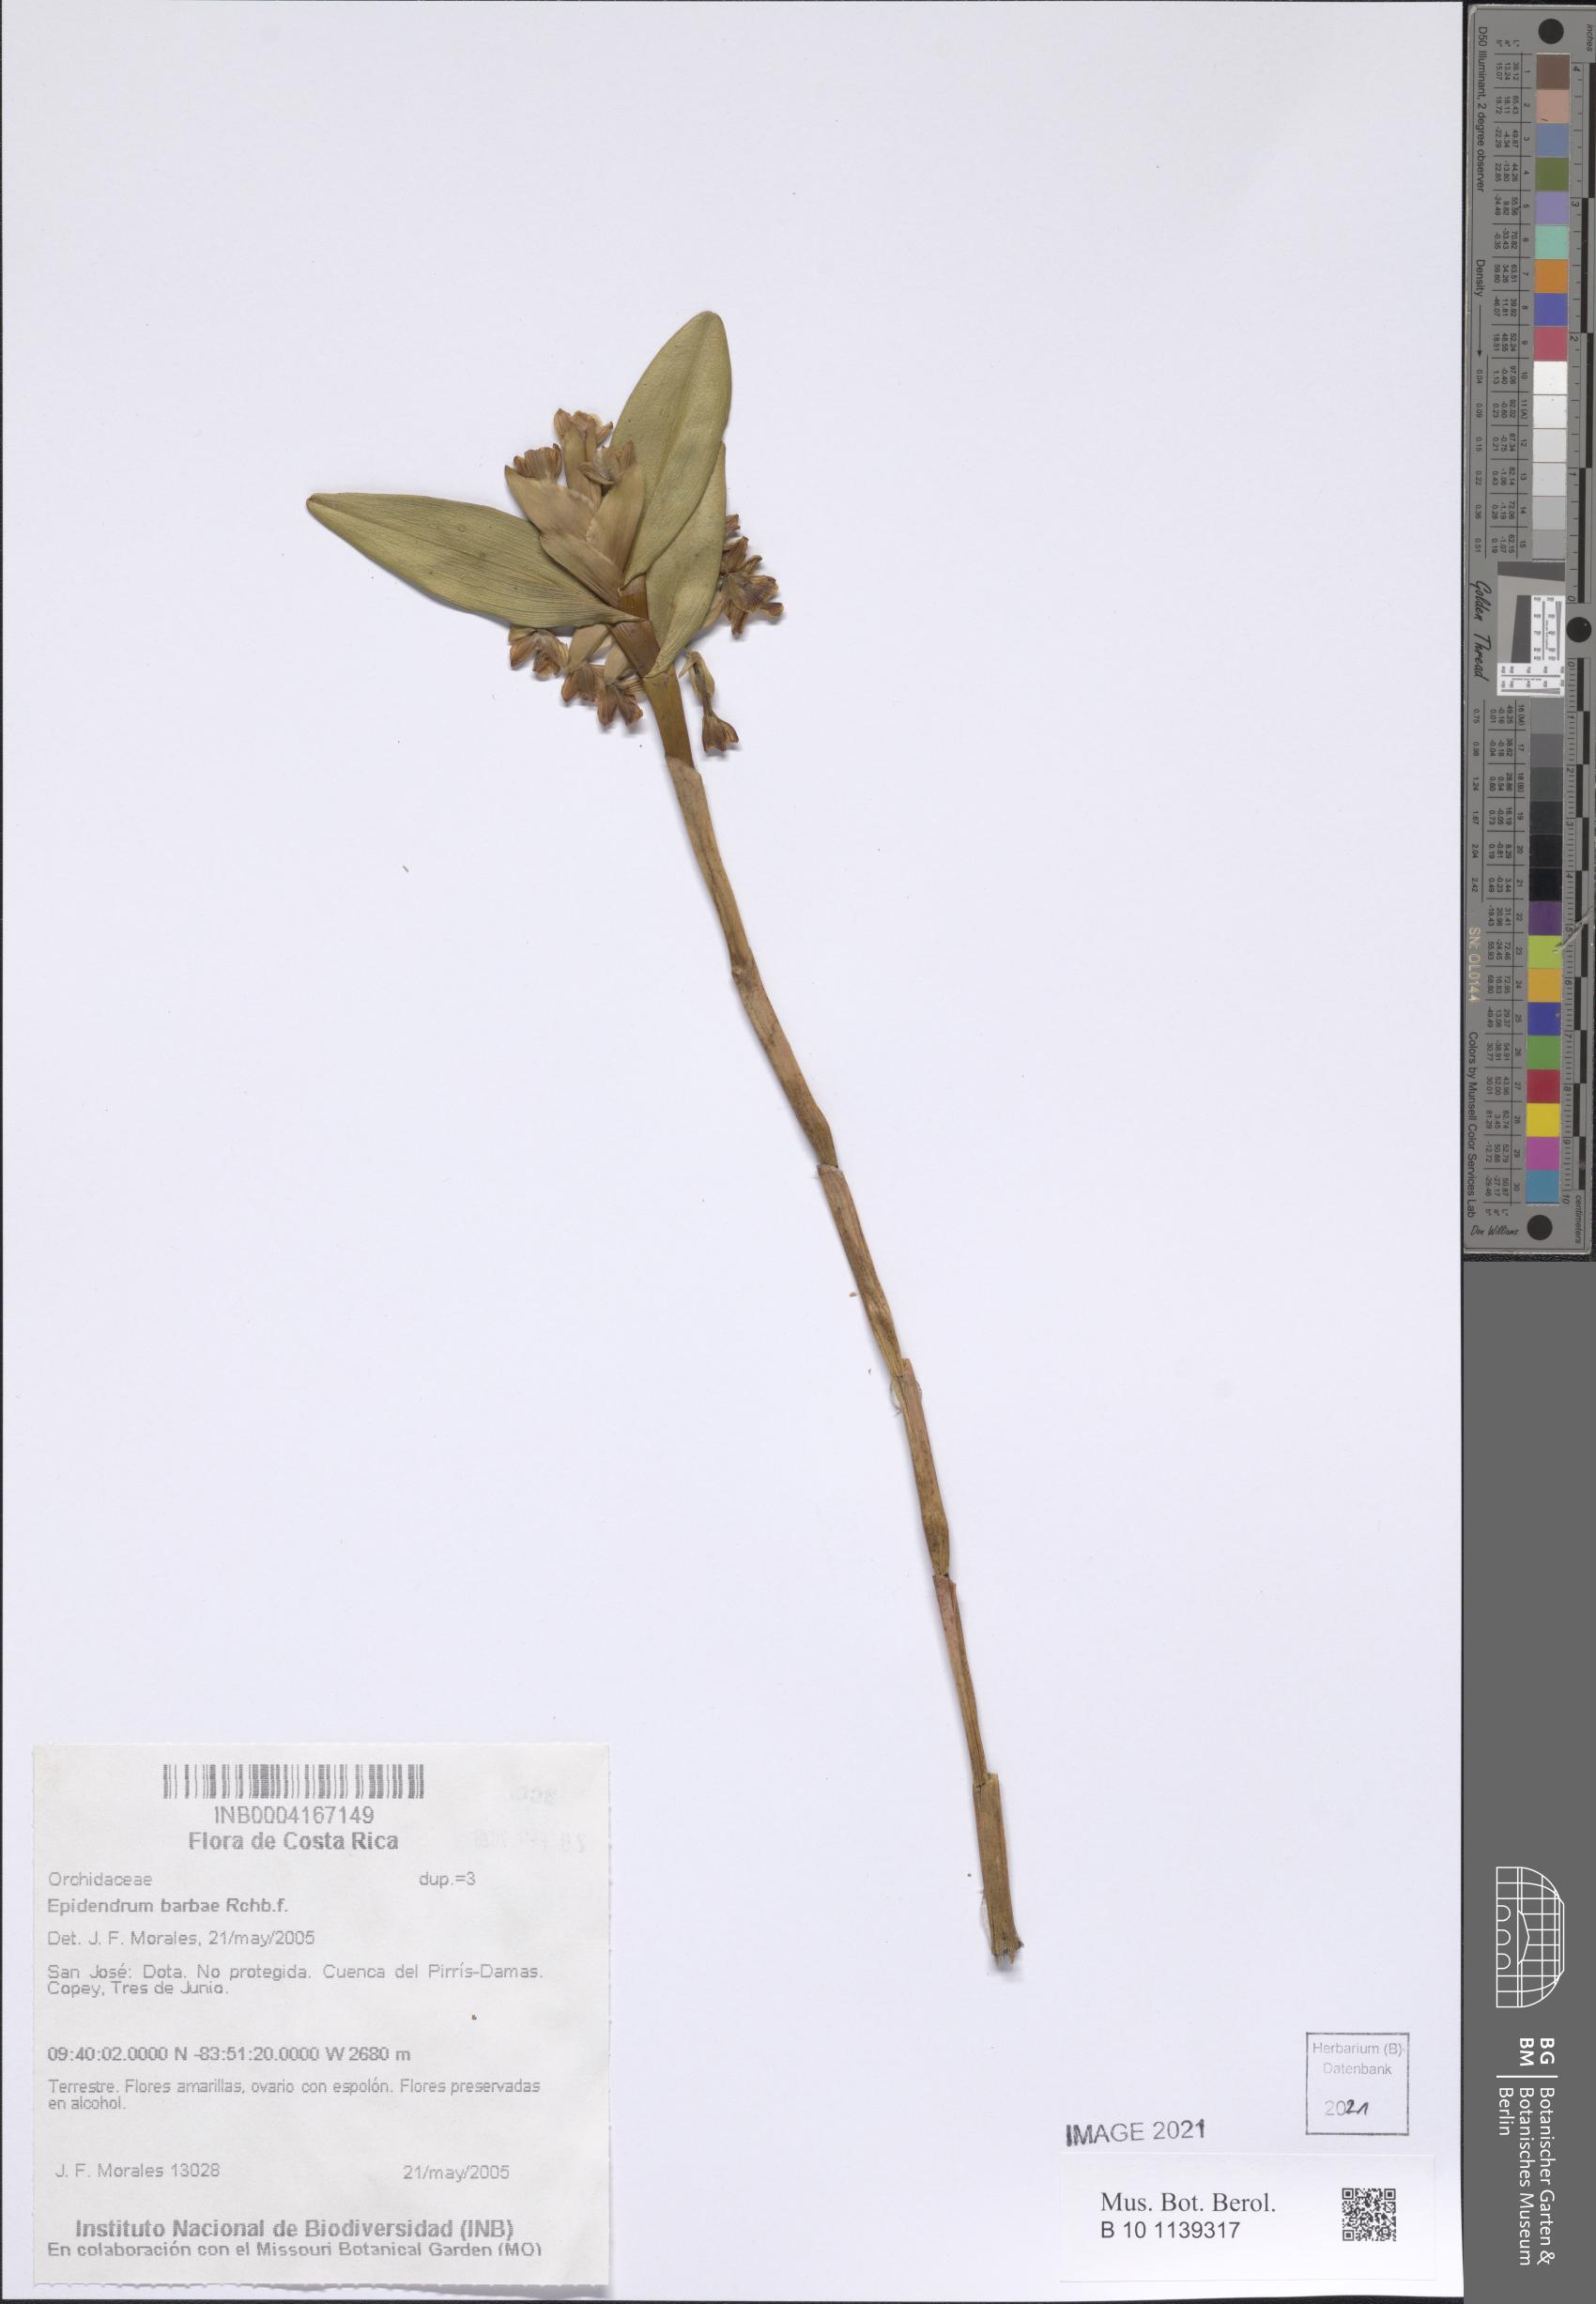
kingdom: Plantae
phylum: Tracheophyta
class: Liliopsida
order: Asparagales
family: Orchidaceae
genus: Epidendrum
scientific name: Epidendrum barbae
